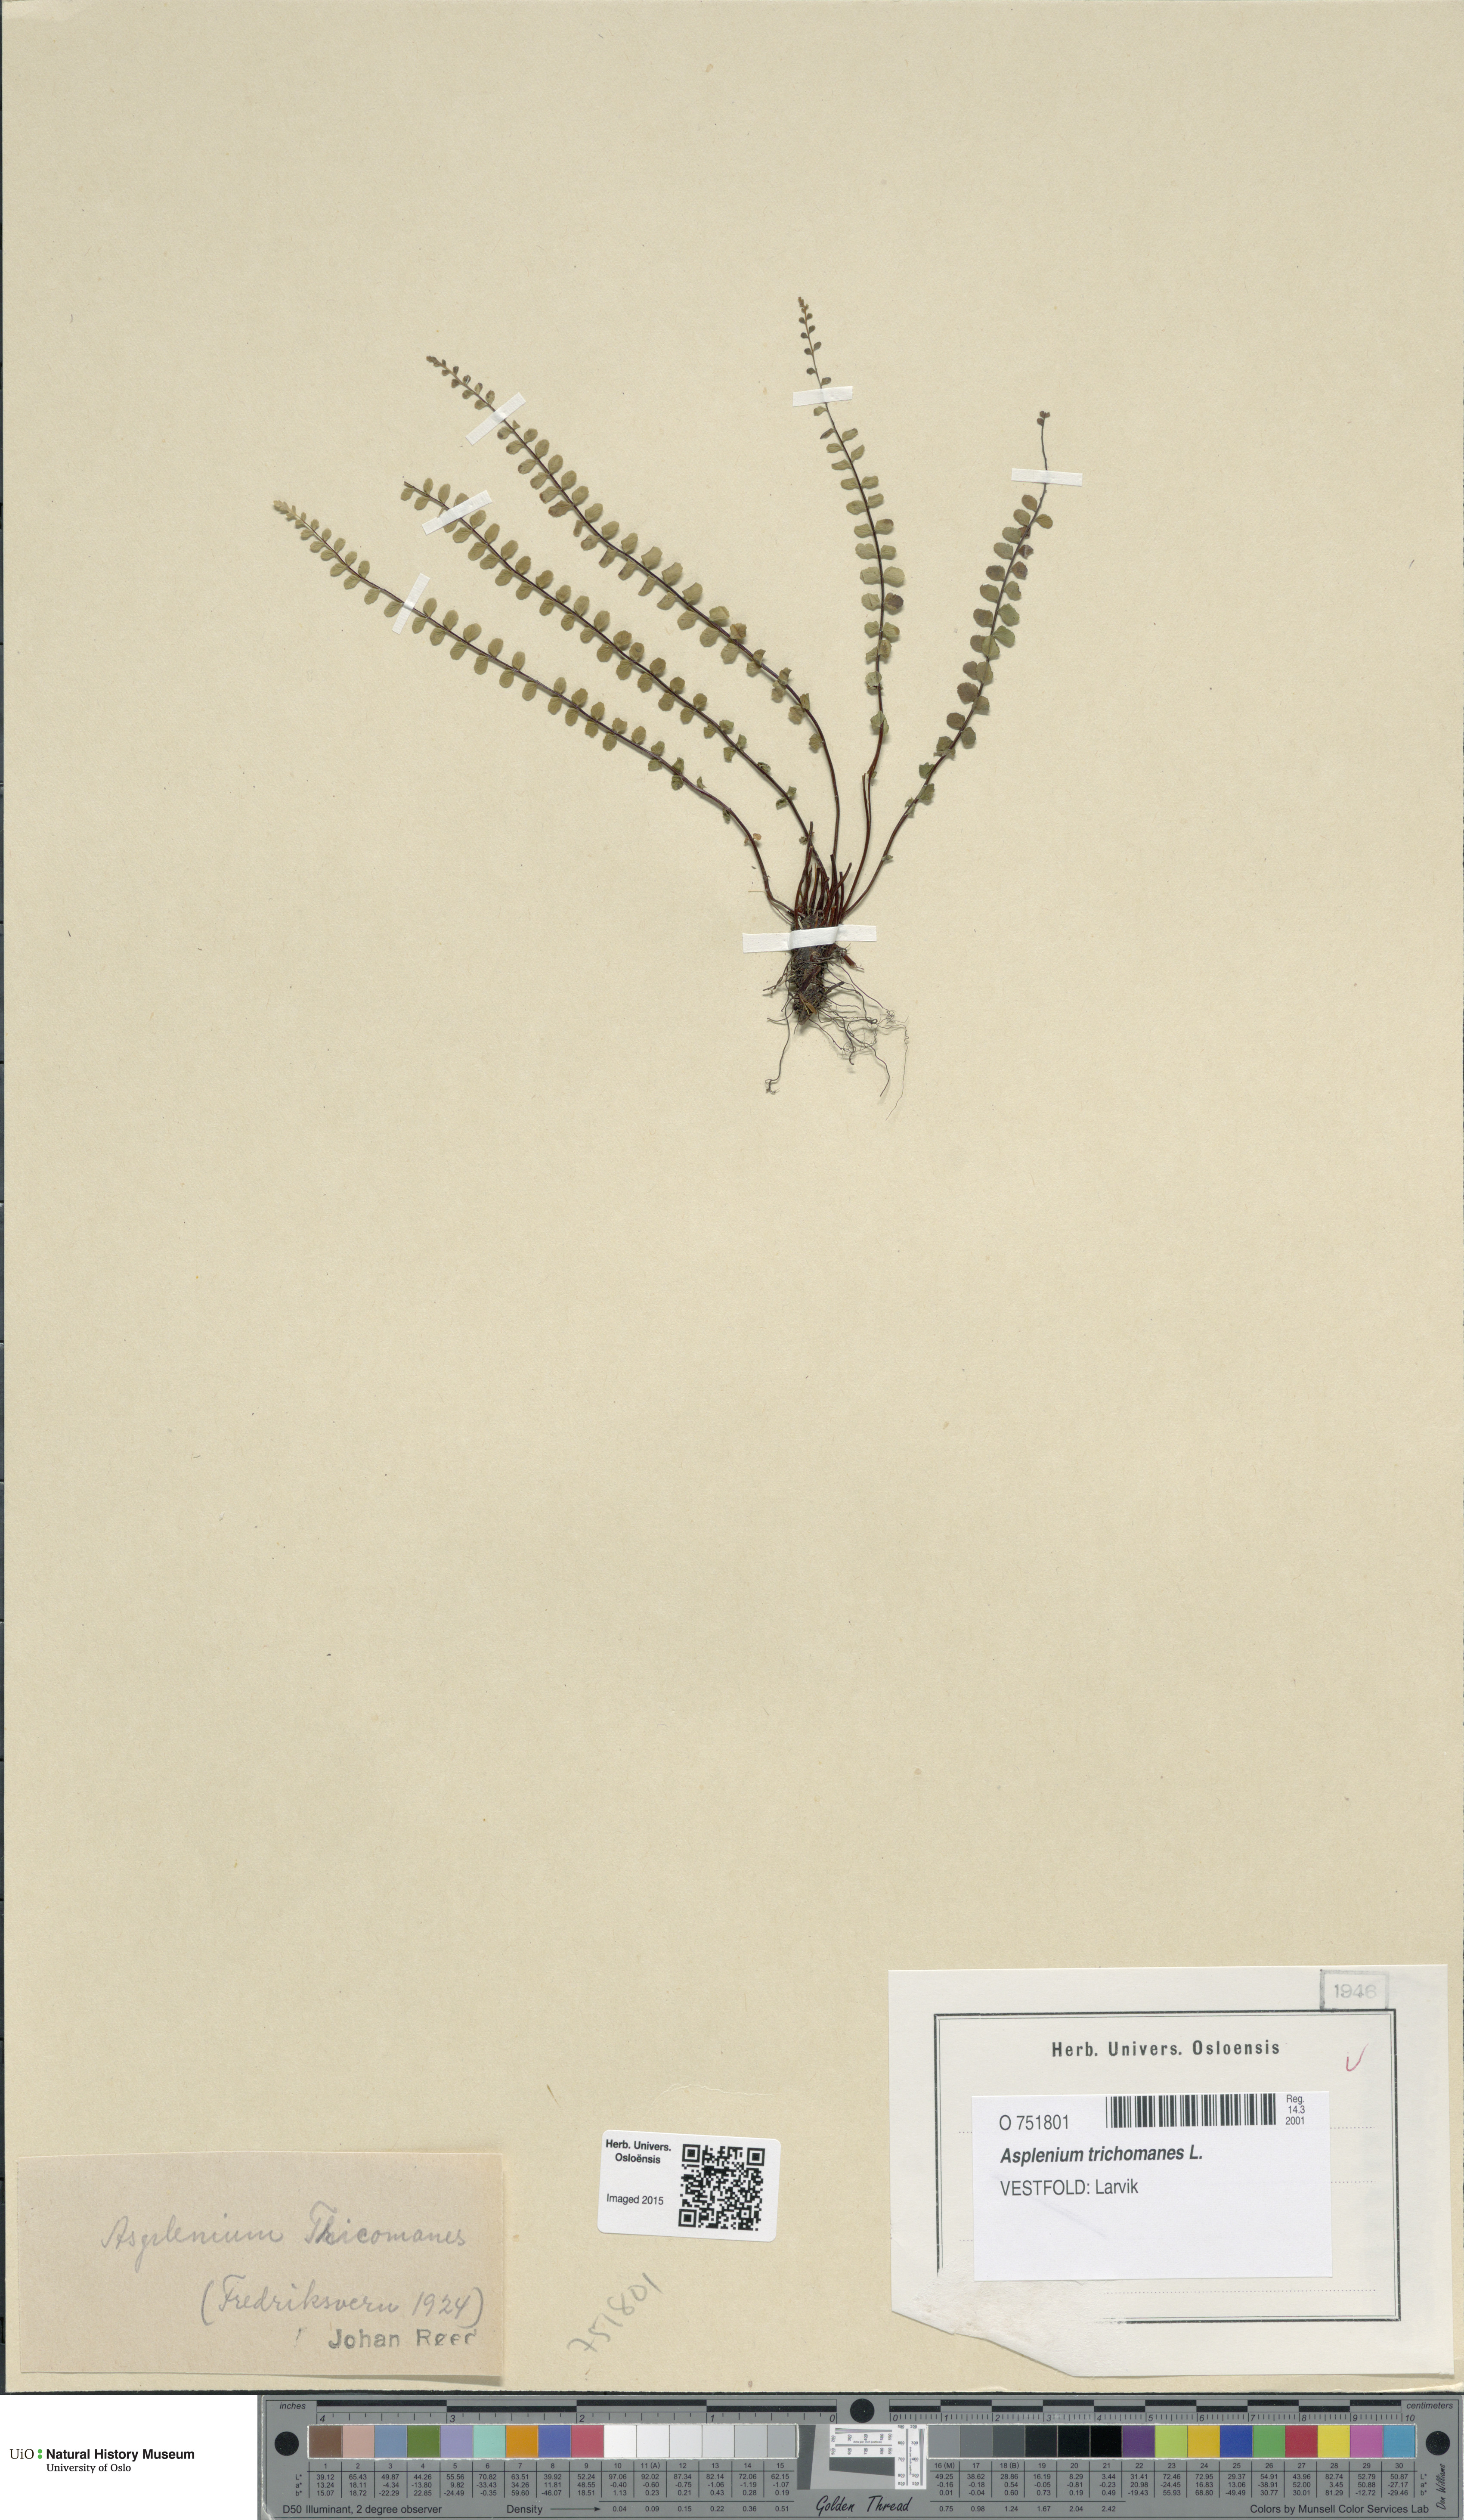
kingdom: Plantae
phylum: Tracheophyta
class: Polypodiopsida
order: Polypodiales
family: Aspleniaceae
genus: Asplenium
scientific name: Asplenium trichomanes
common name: Maidenhair spleenwort
